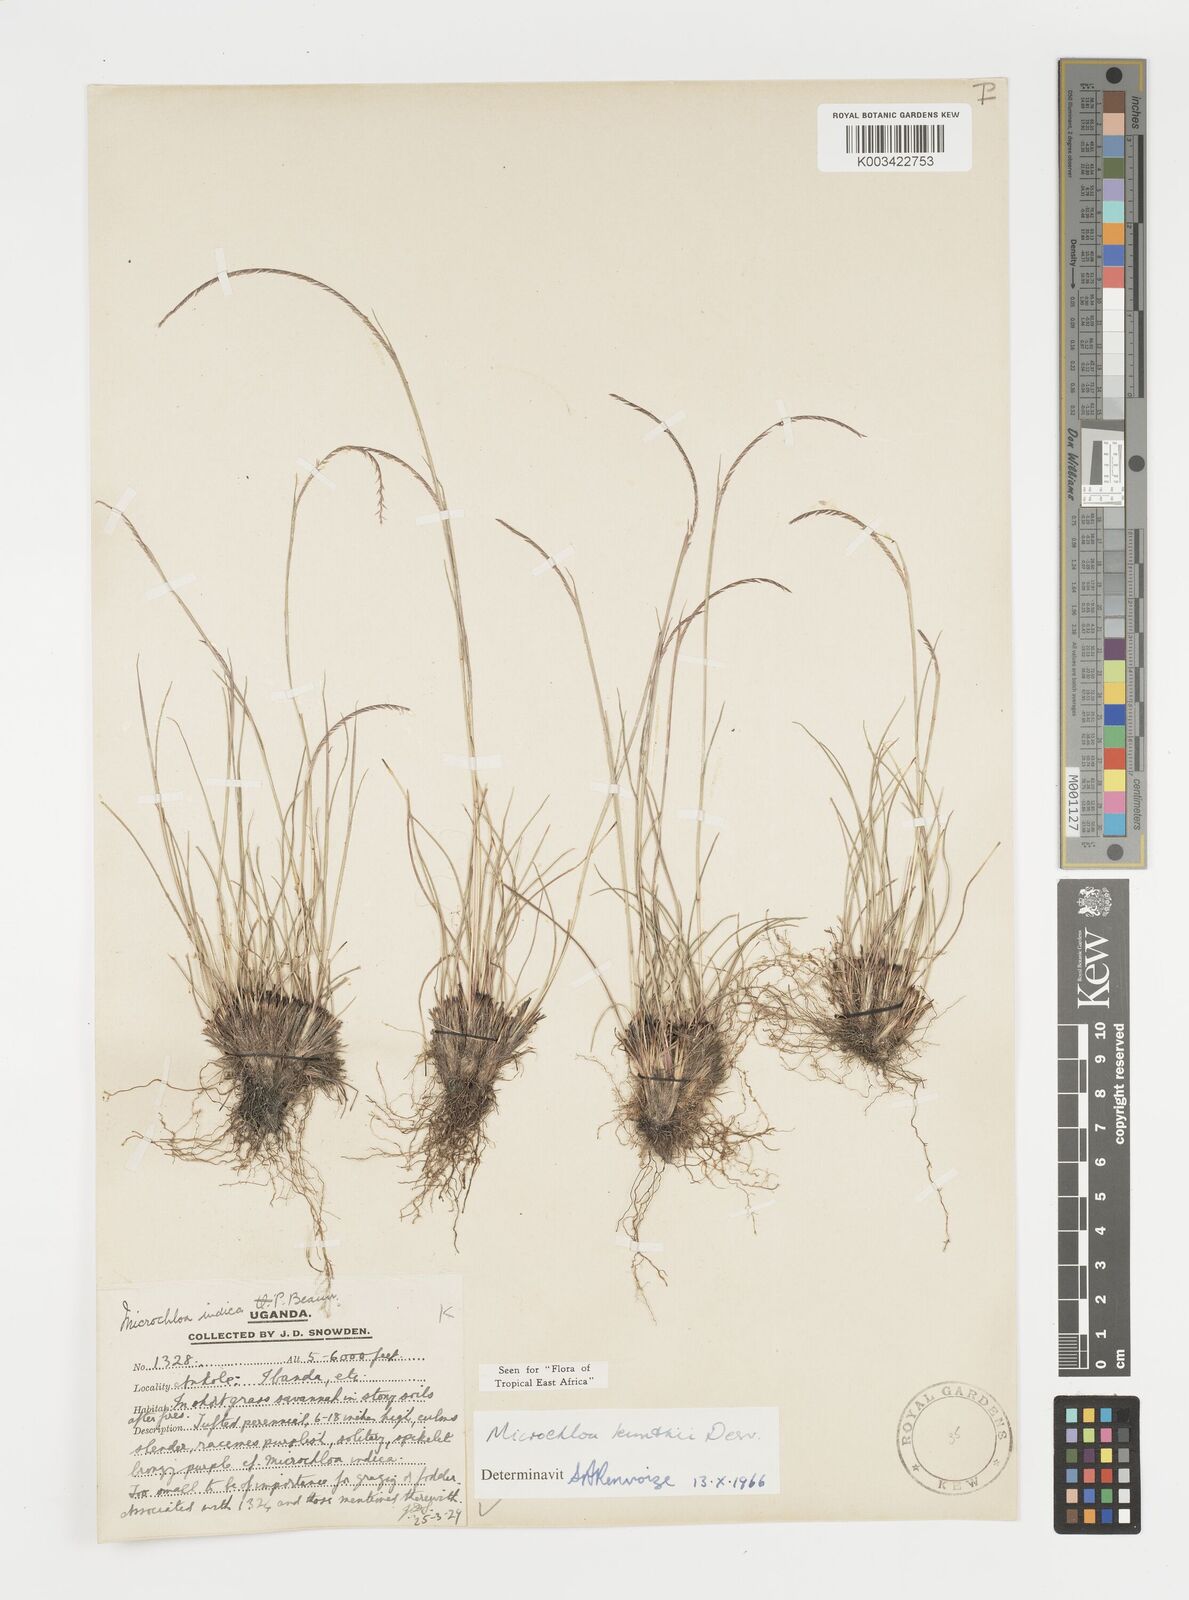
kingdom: Plantae
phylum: Tracheophyta
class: Liliopsida
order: Poales
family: Poaceae
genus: Microchloa
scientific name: Microchloa kunthii
